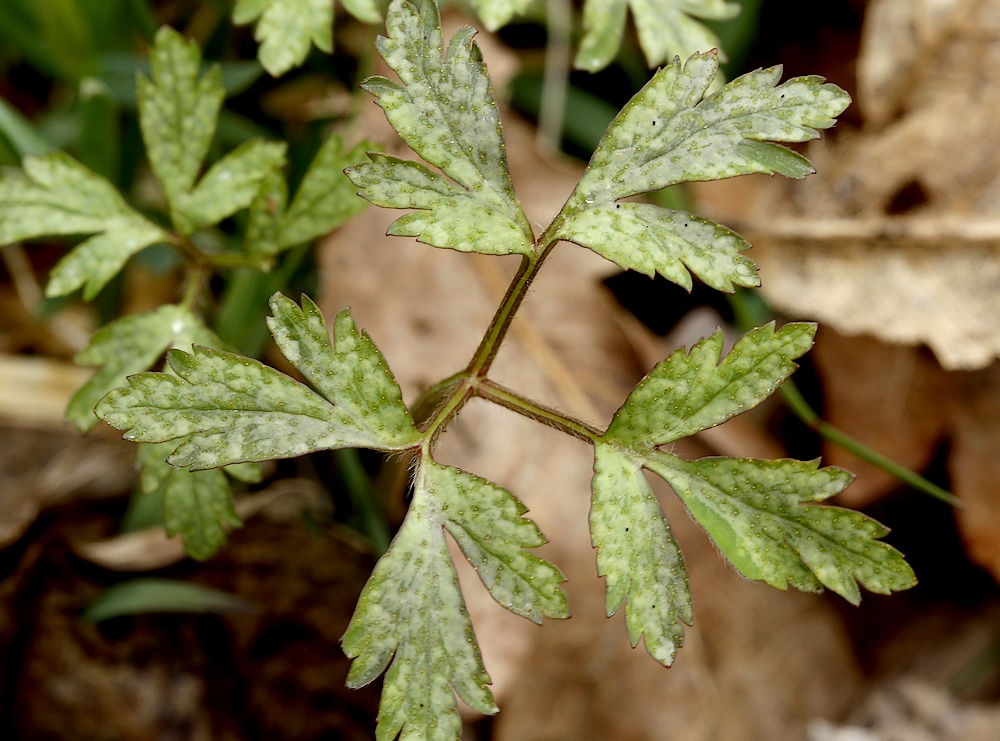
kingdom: Fungi
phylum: Basidiomycota
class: Pucciniomycetes
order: Pucciniales
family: Ochropsoraceae
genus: Ochropsora
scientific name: Ochropsora ariae
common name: anemone-okkerpletrust
